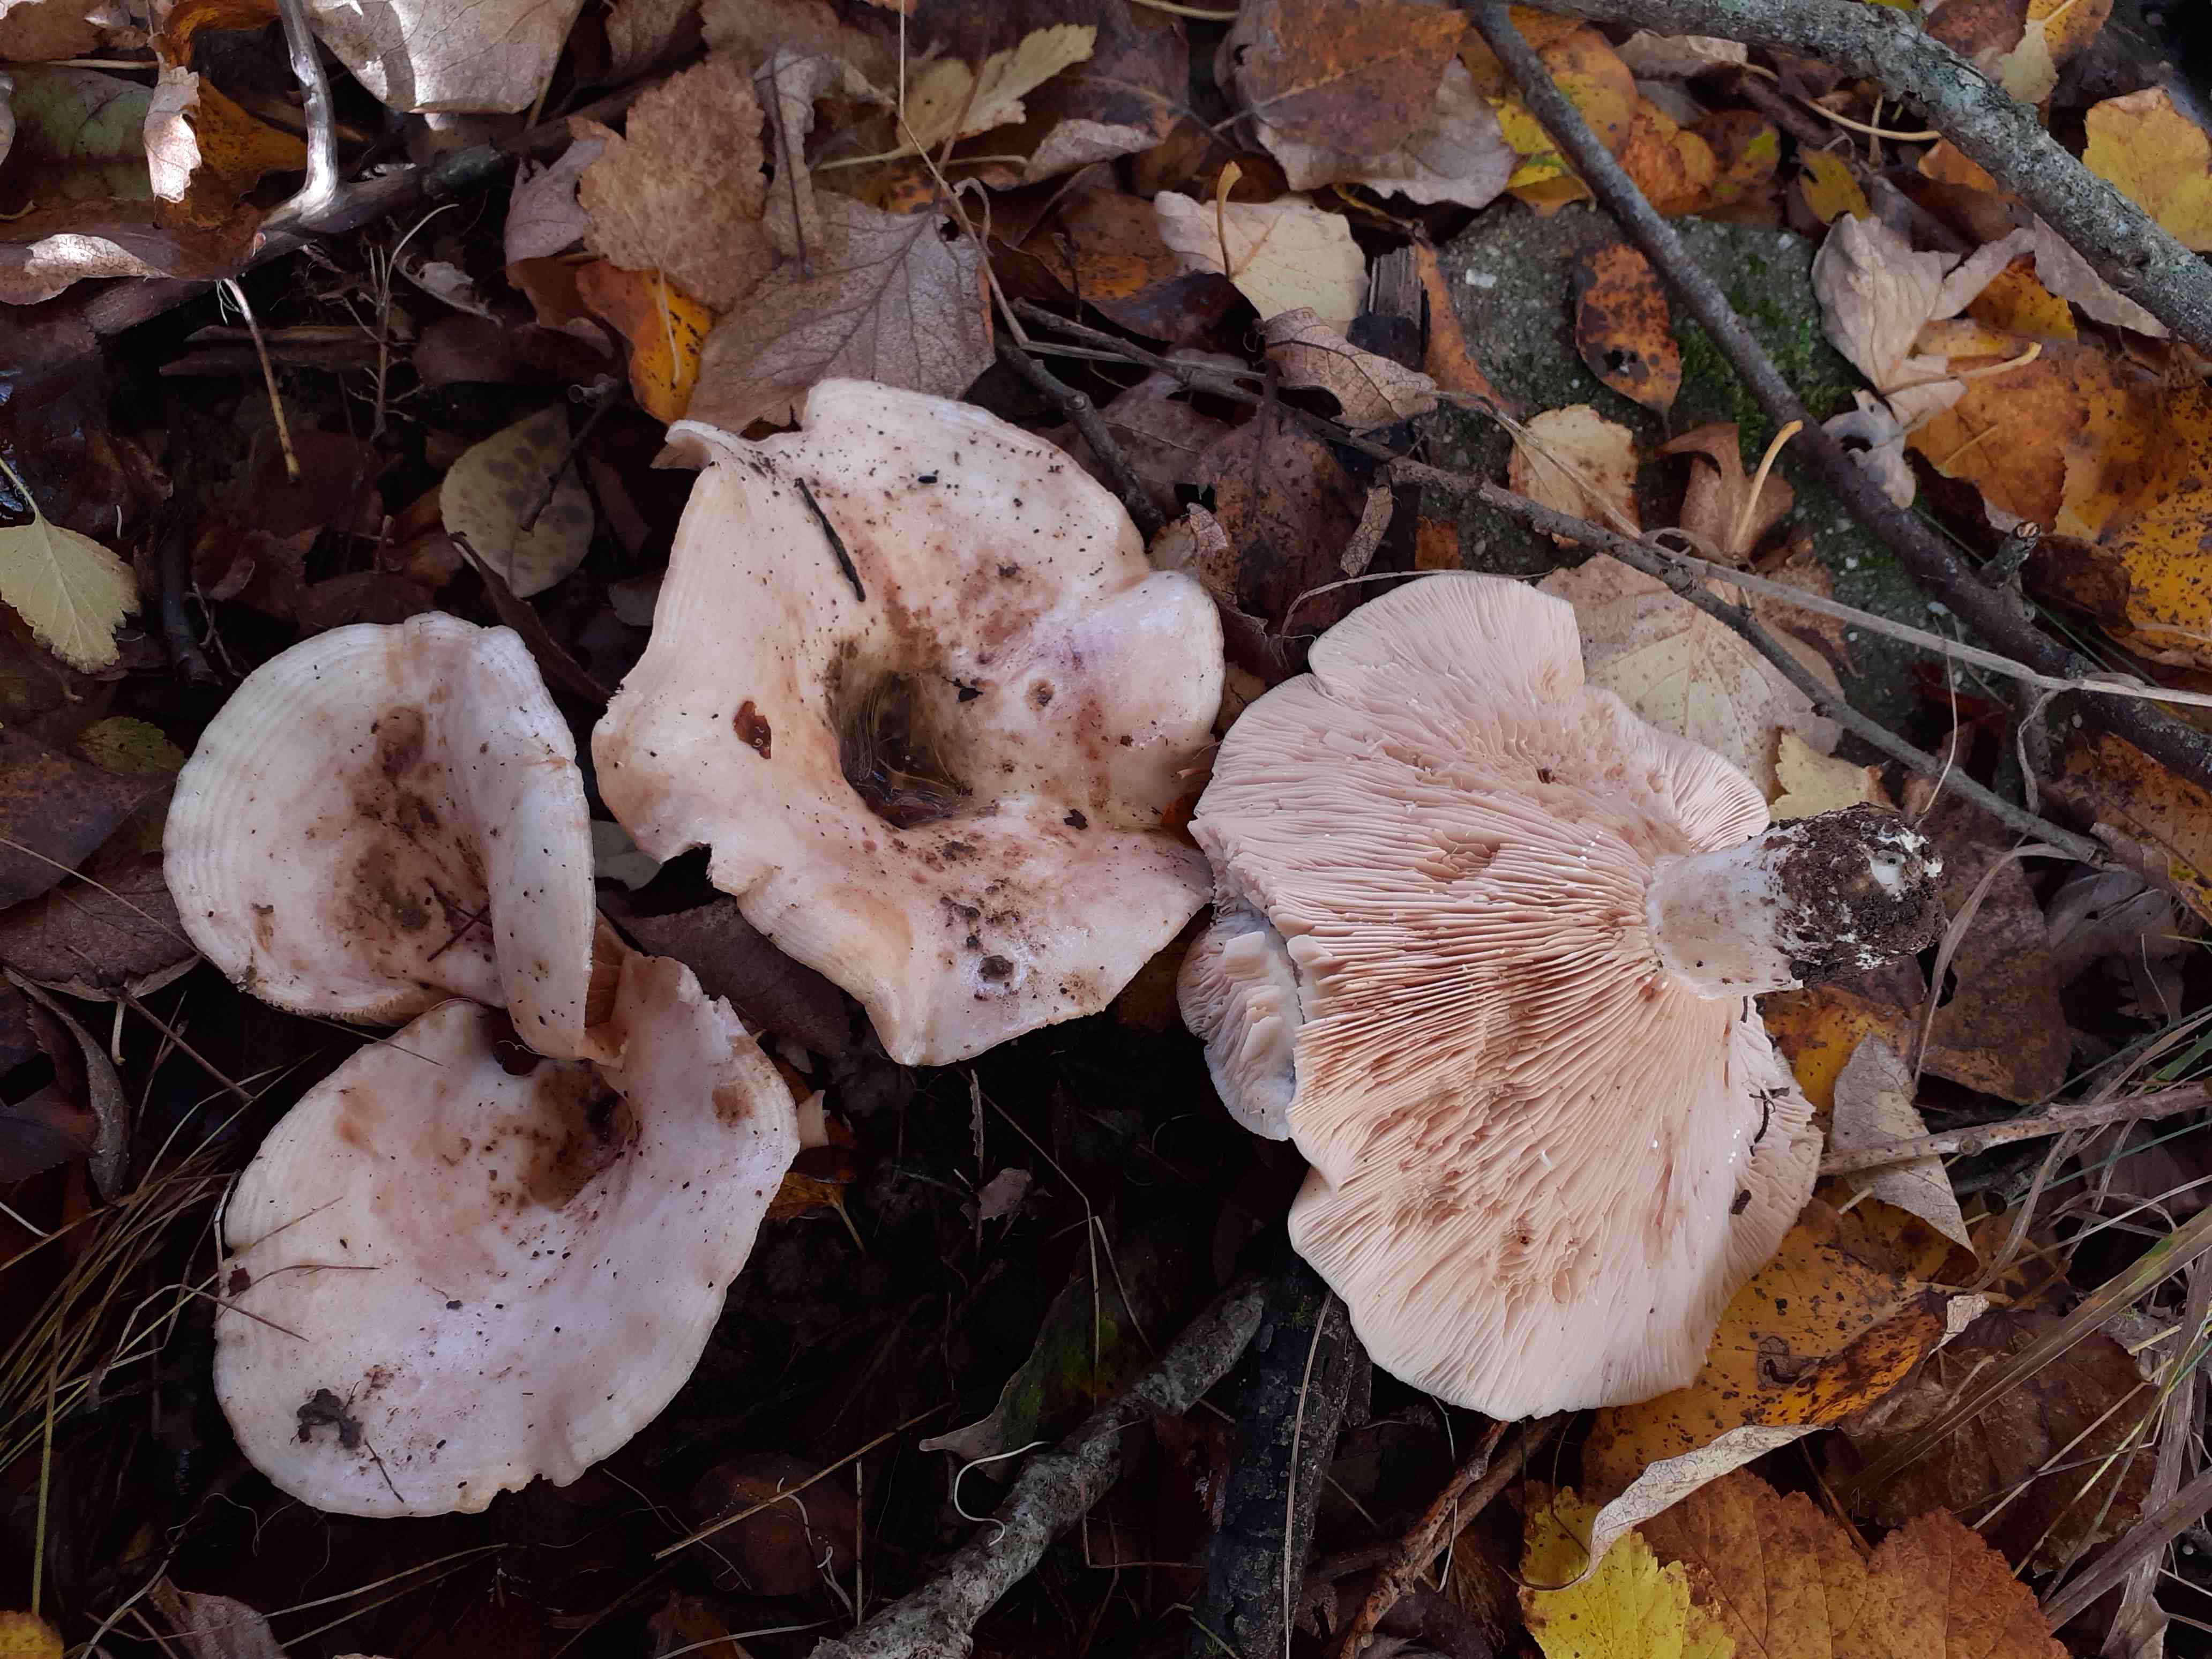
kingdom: Fungi
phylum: Basidiomycota
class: Agaricomycetes
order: Russulales
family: Russulaceae
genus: Lactarius
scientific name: Lactarius controversus
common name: rosabladet mælkehat
